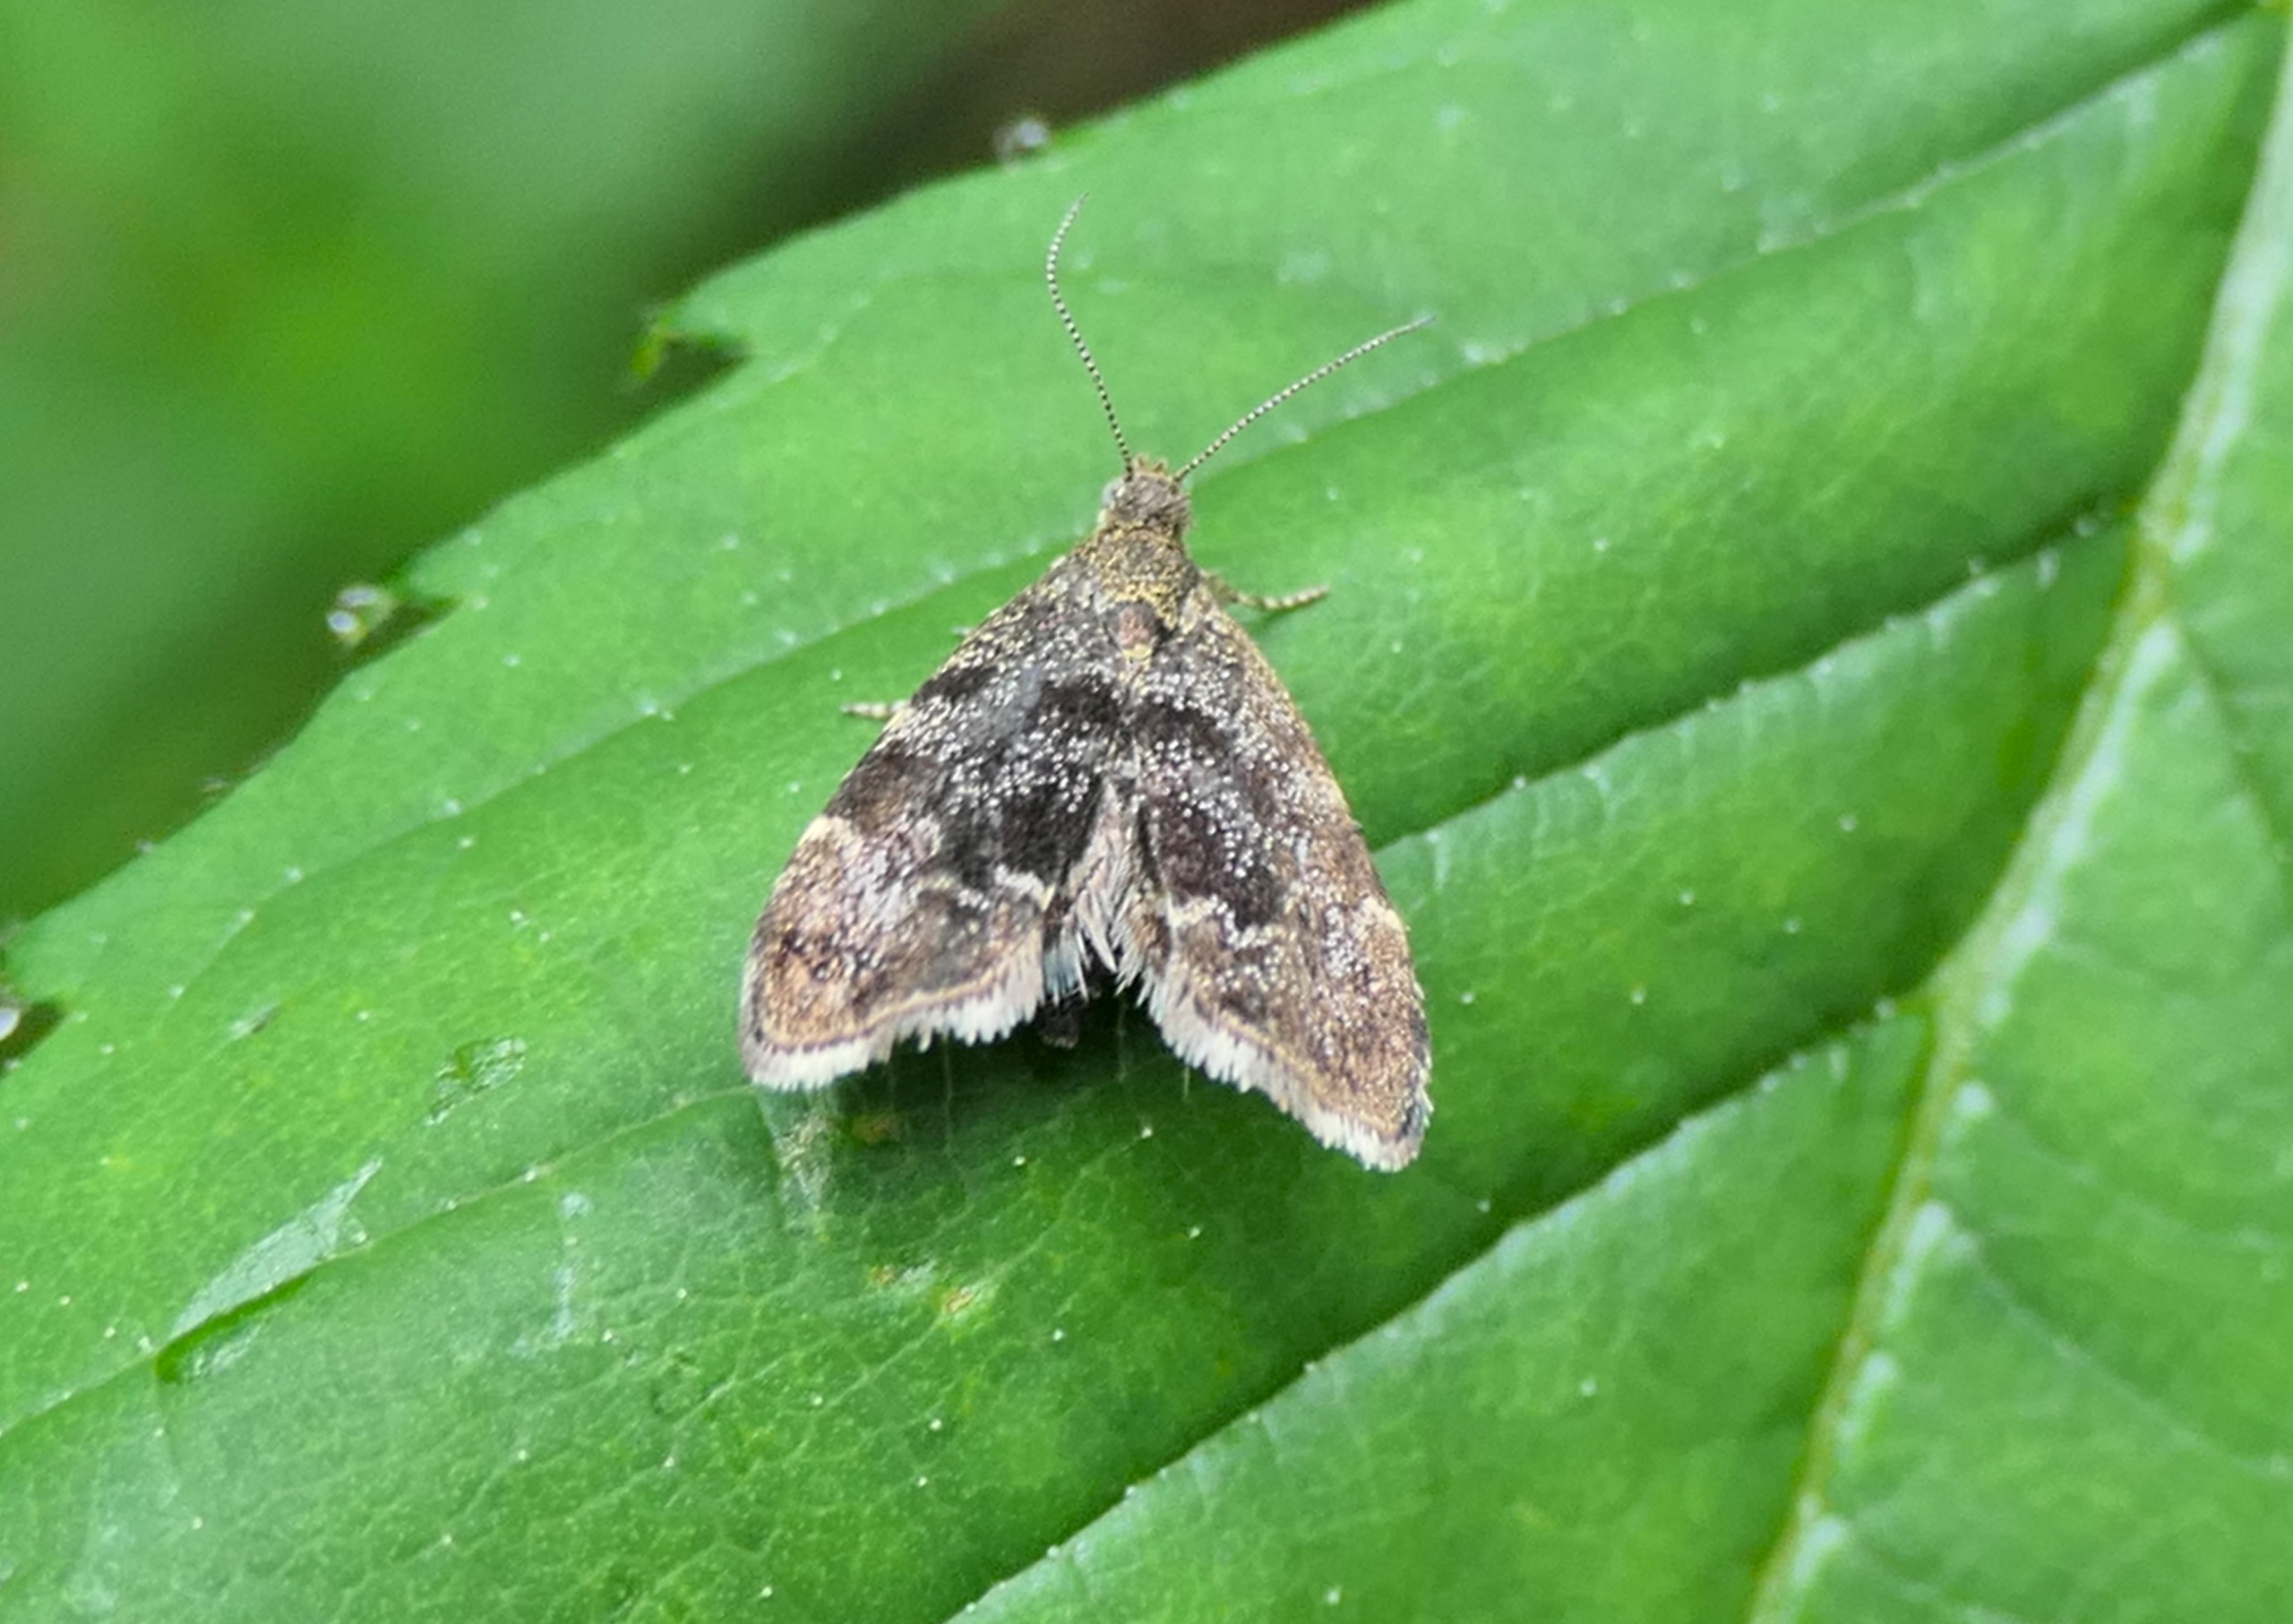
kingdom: Animalia
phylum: Arthropoda
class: Insecta
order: Lepidoptera
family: Choreutidae
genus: Anthophila
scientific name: Anthophila fabriciana
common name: Bredvinget nældevikler
